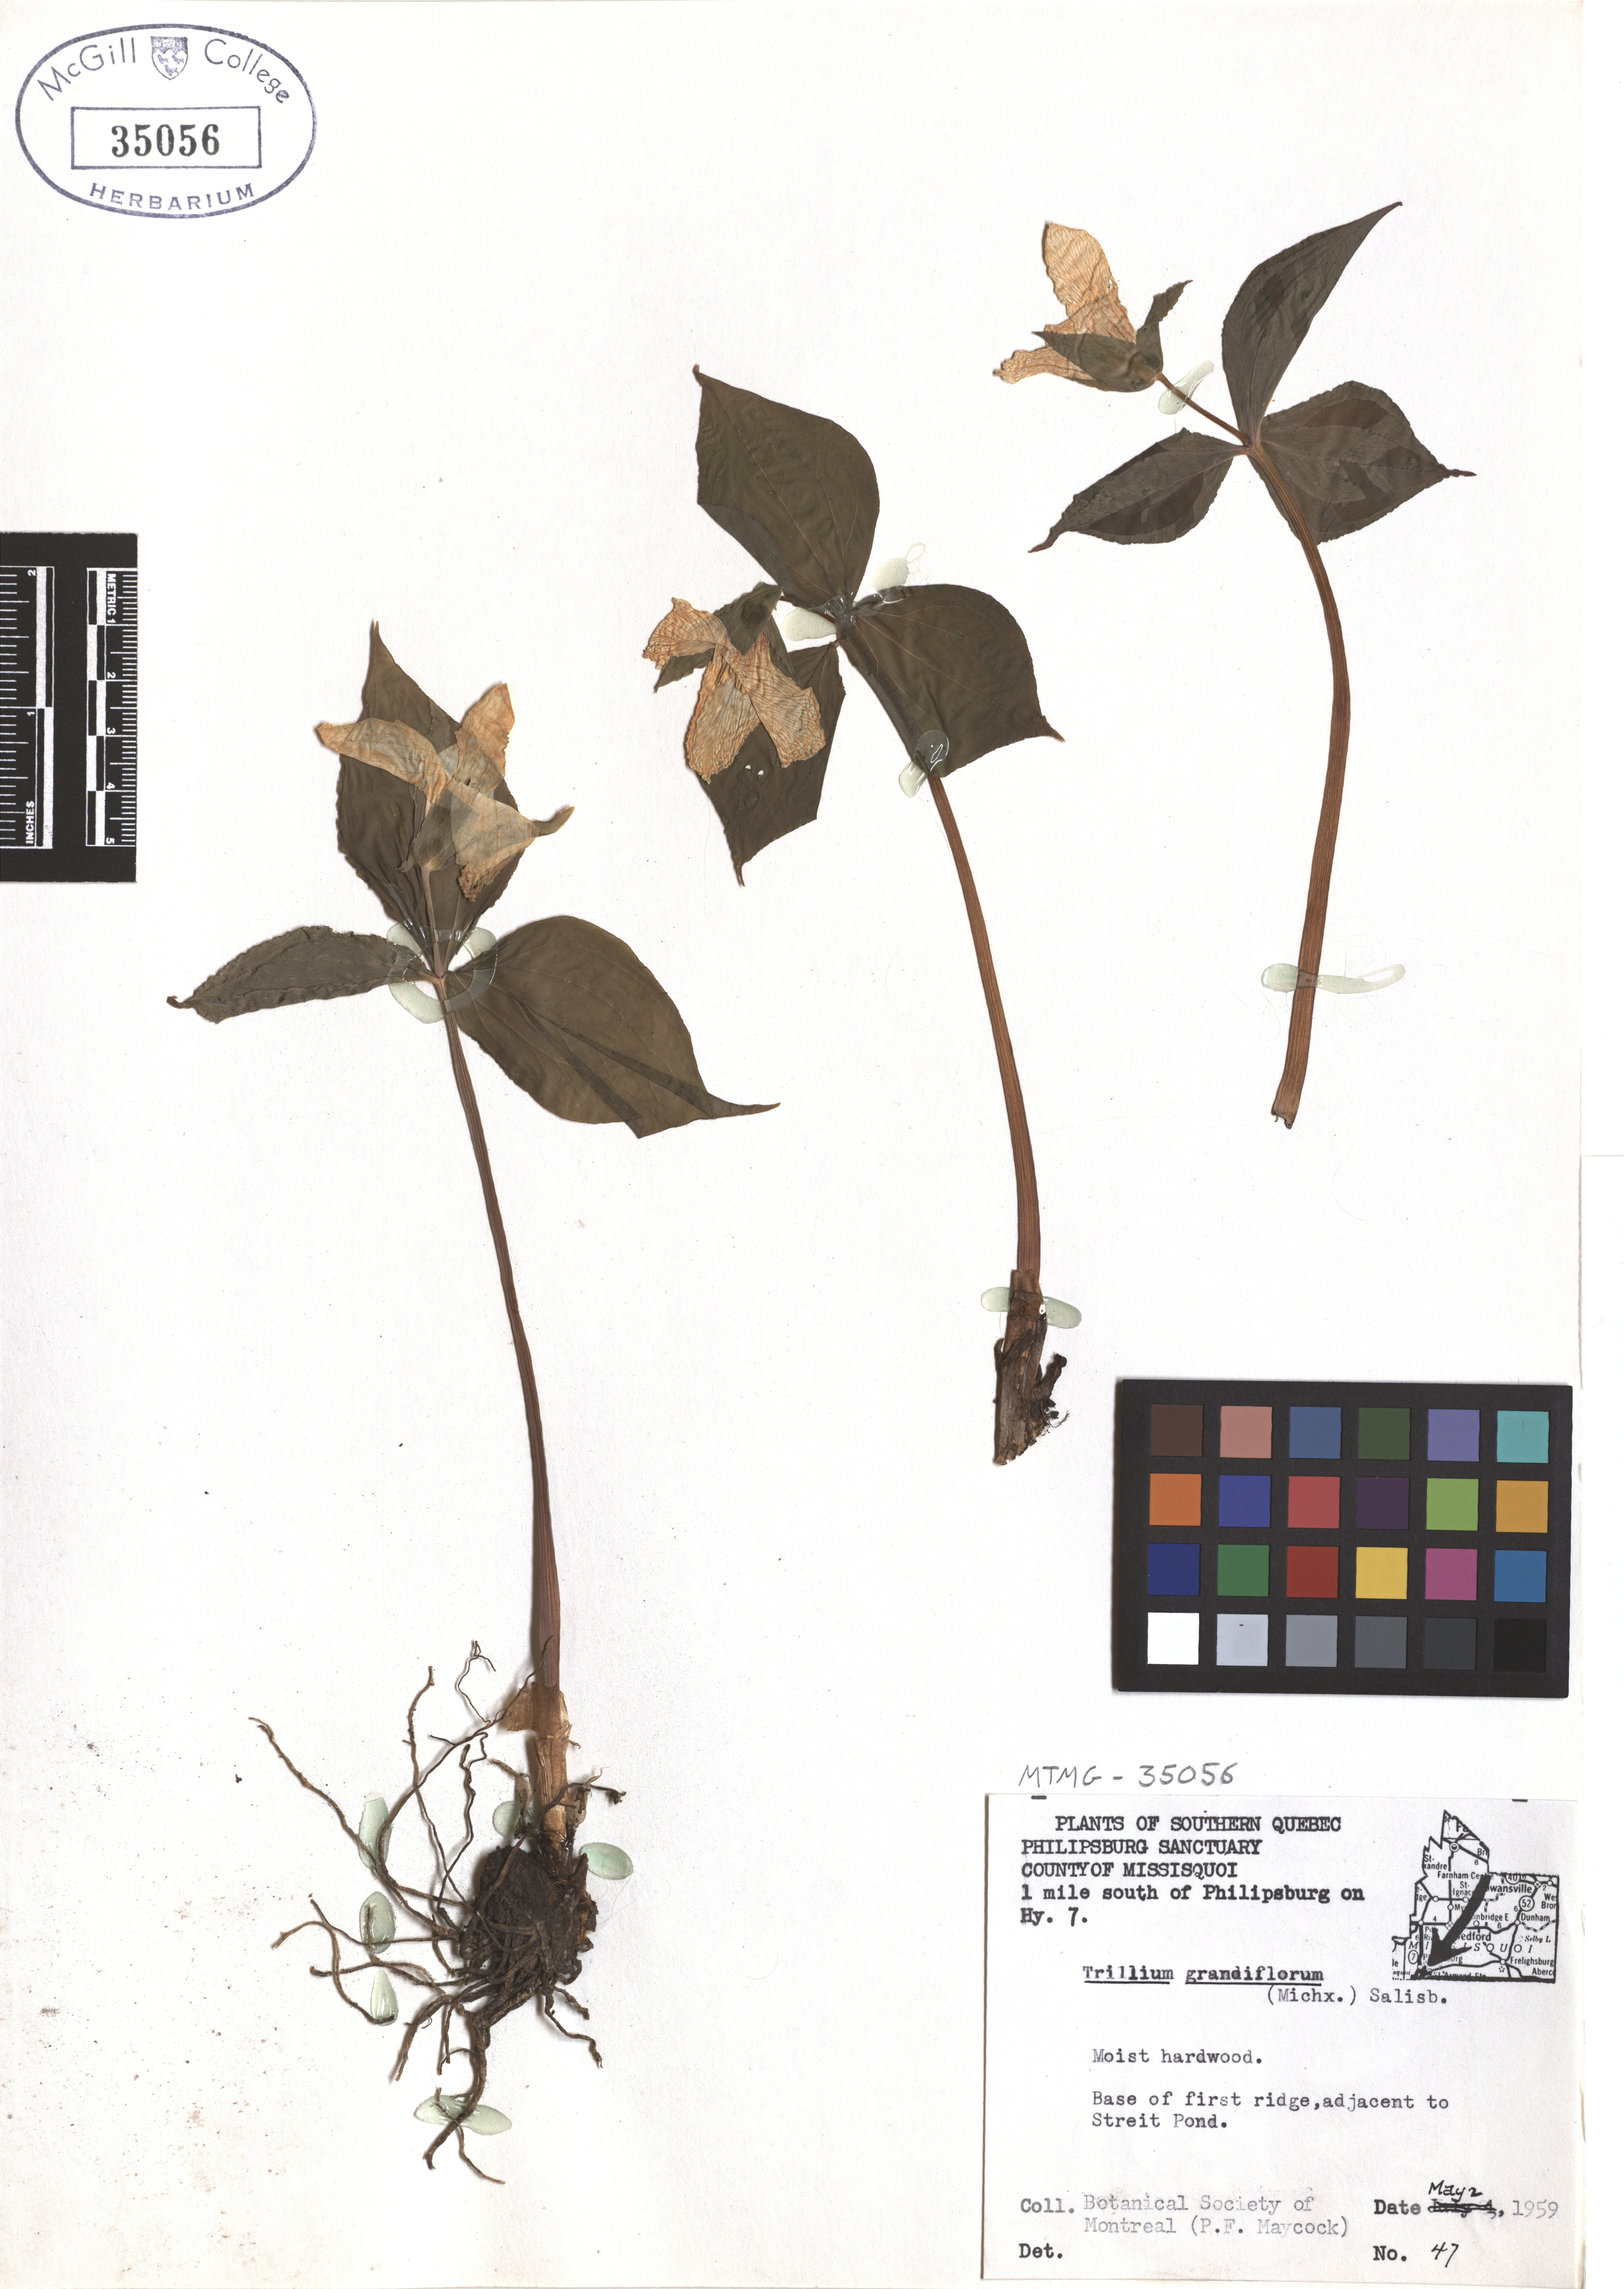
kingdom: Plantae
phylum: Tracheophyta
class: Liliopsida
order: Liliales
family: Melanthiaceae
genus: Trillium
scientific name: Trillium grandiflorum
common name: Great white trillium
